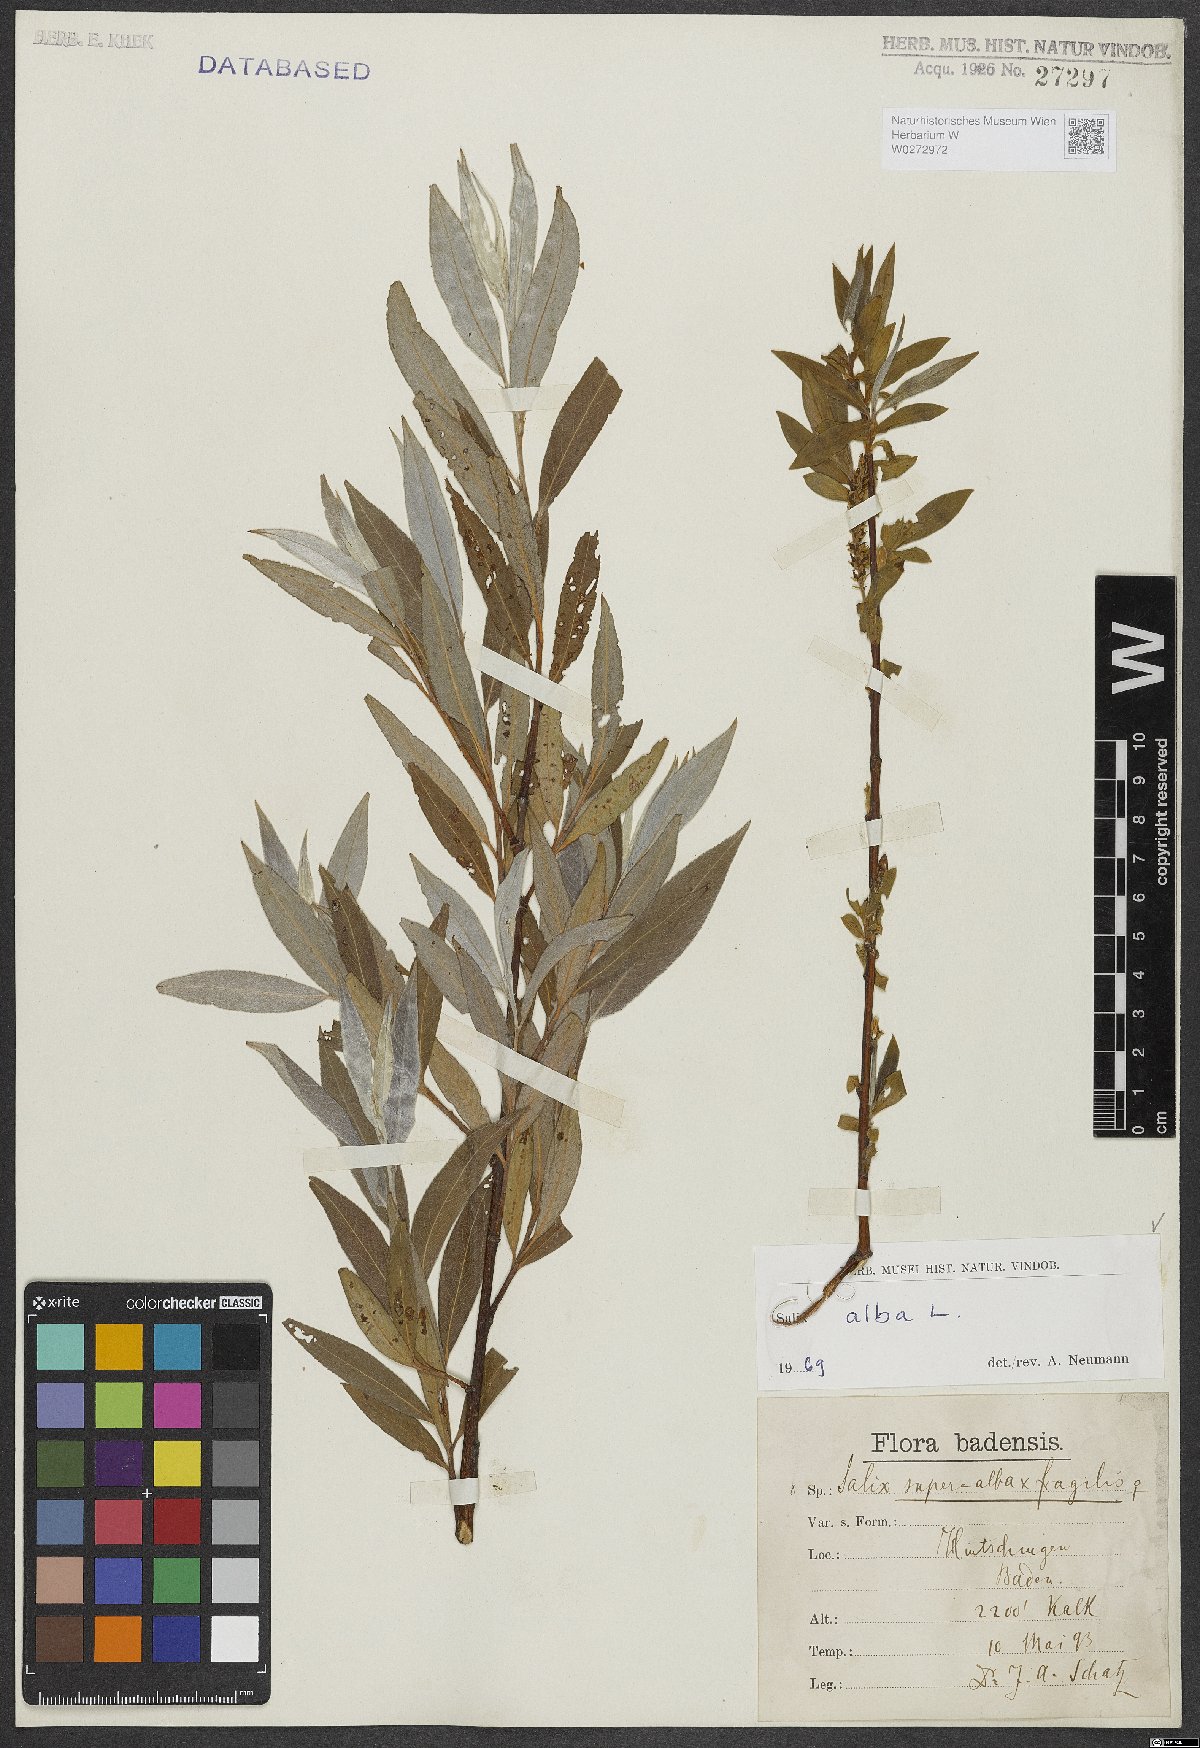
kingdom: Plantae
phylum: Tracheophyta
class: Magnoliopsida
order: Malpighiales
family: Salicaceae
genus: Salix
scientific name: Salix alba
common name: White willow
